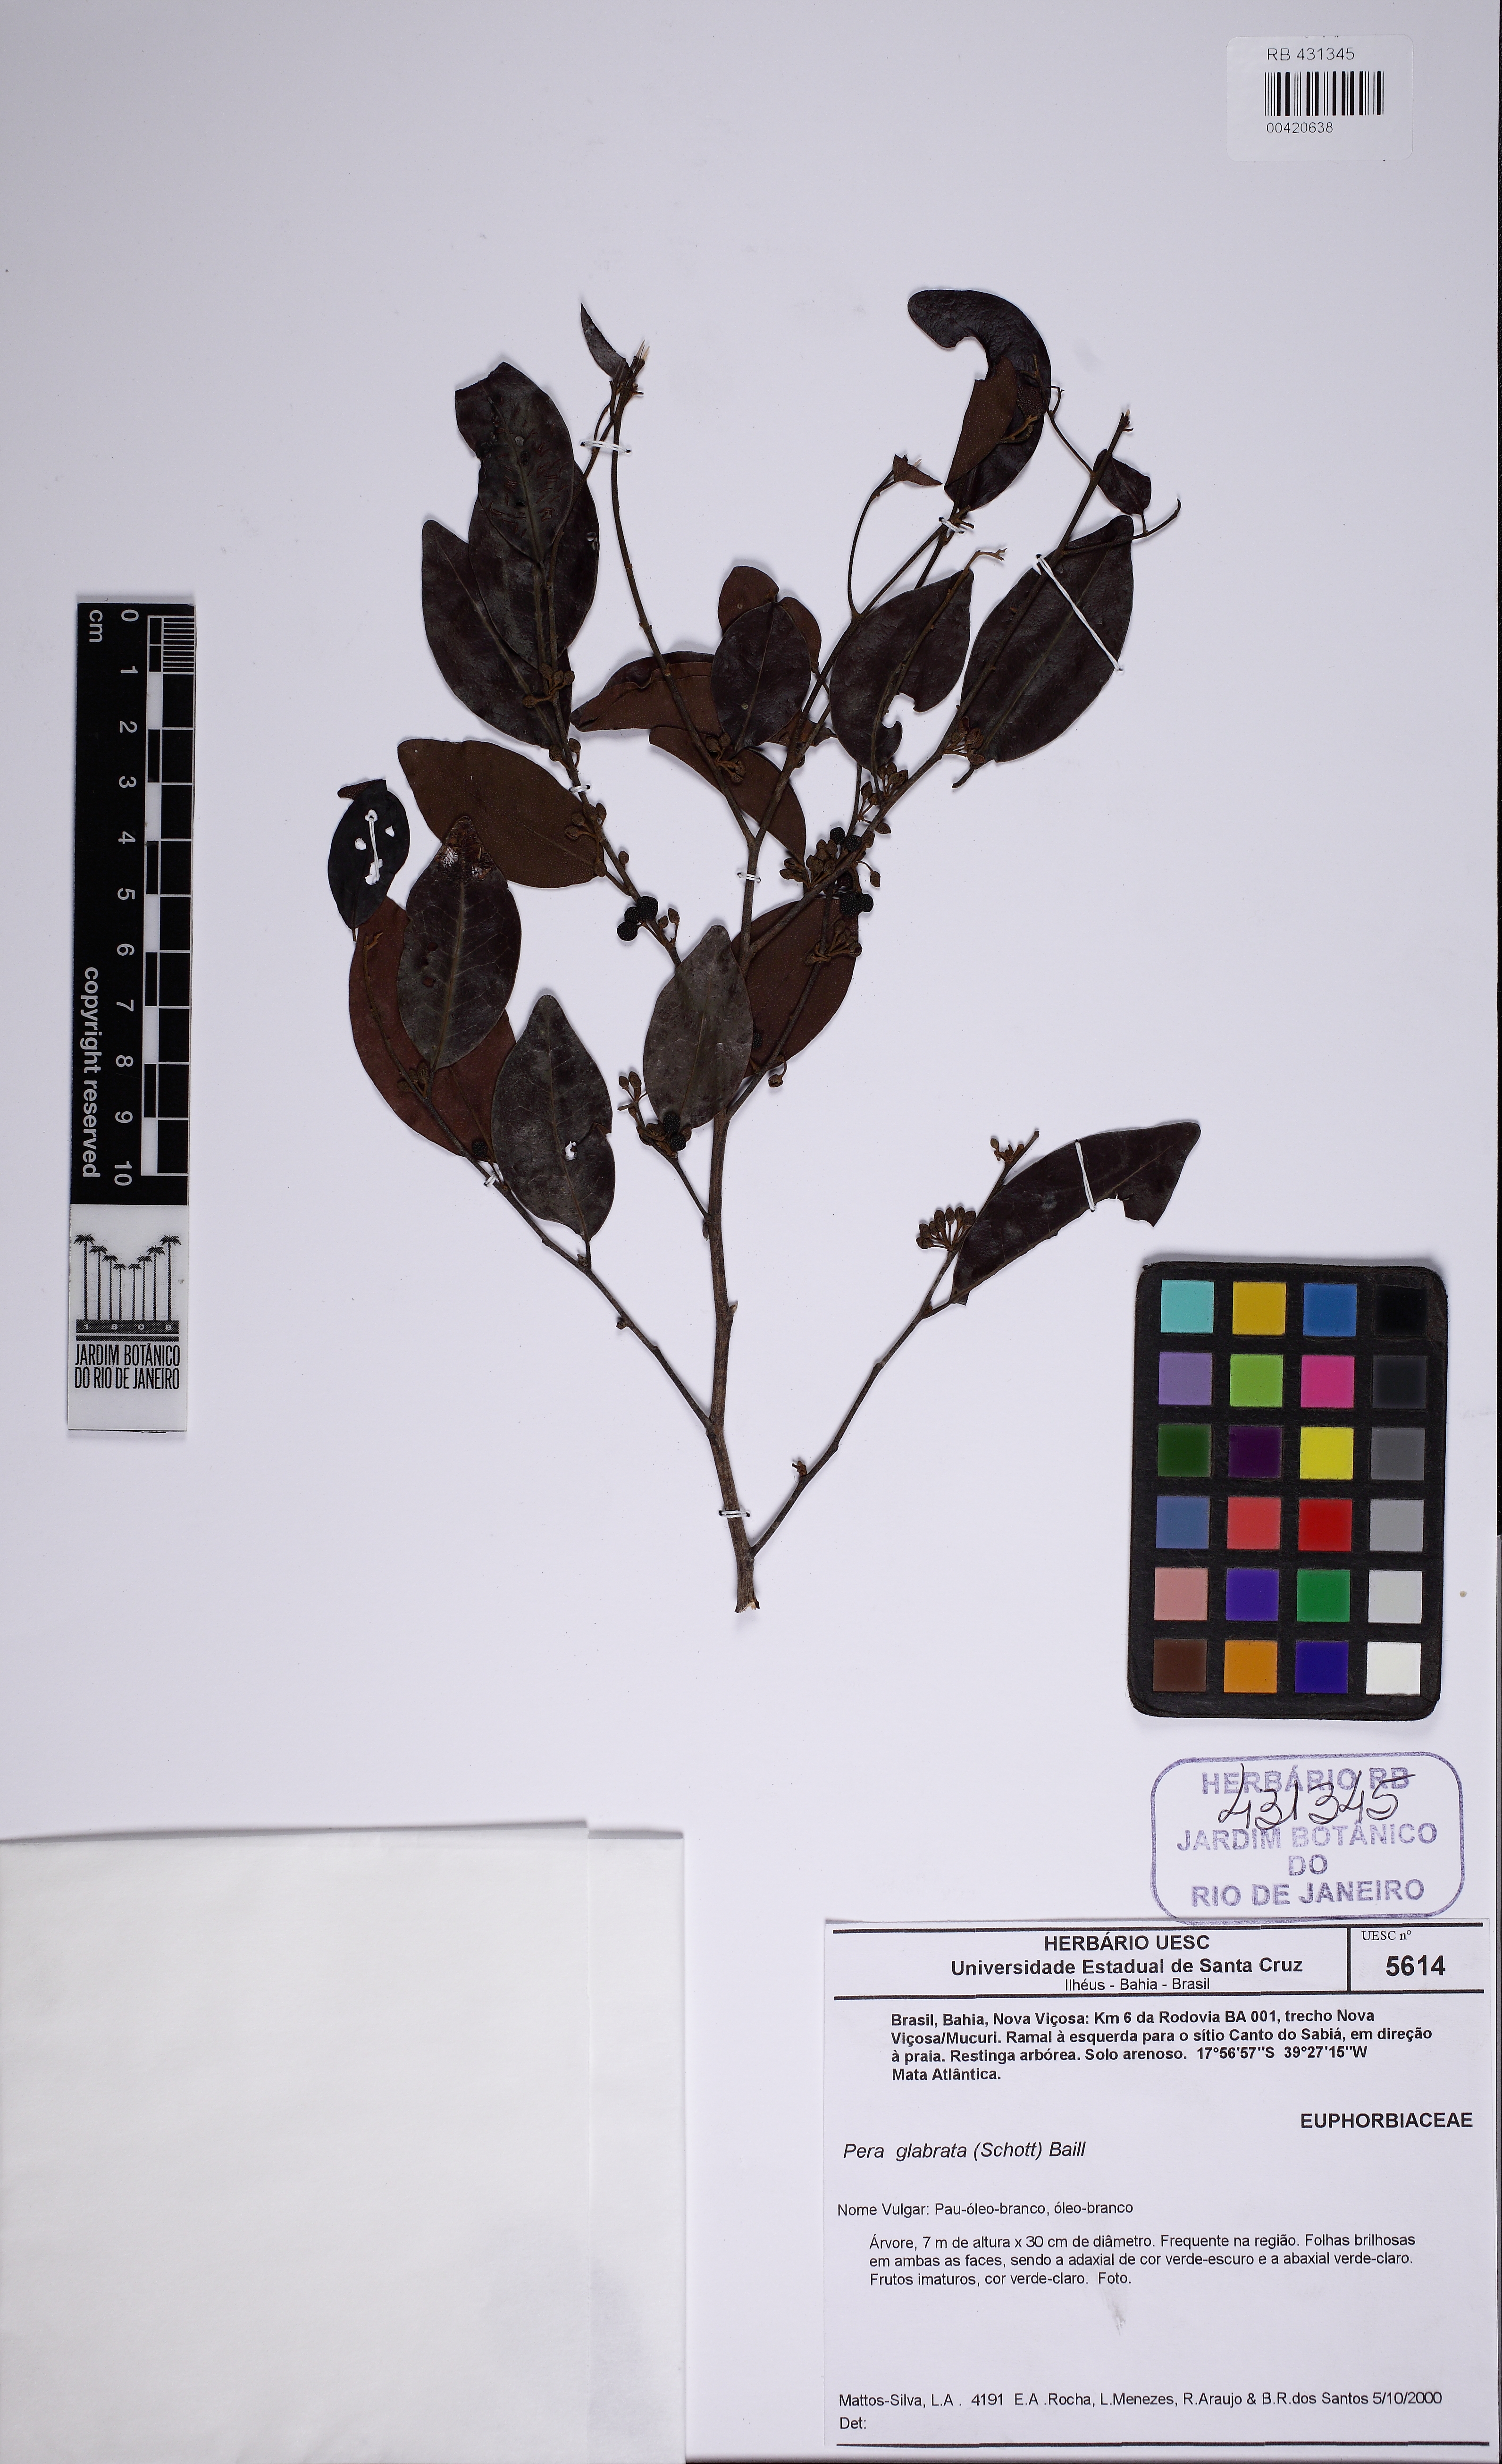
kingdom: Plantae
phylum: Tracheophyta
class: Magnoliopsida
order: Malpighiales
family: Peraceae
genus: Pera
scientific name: Pera glabrata
